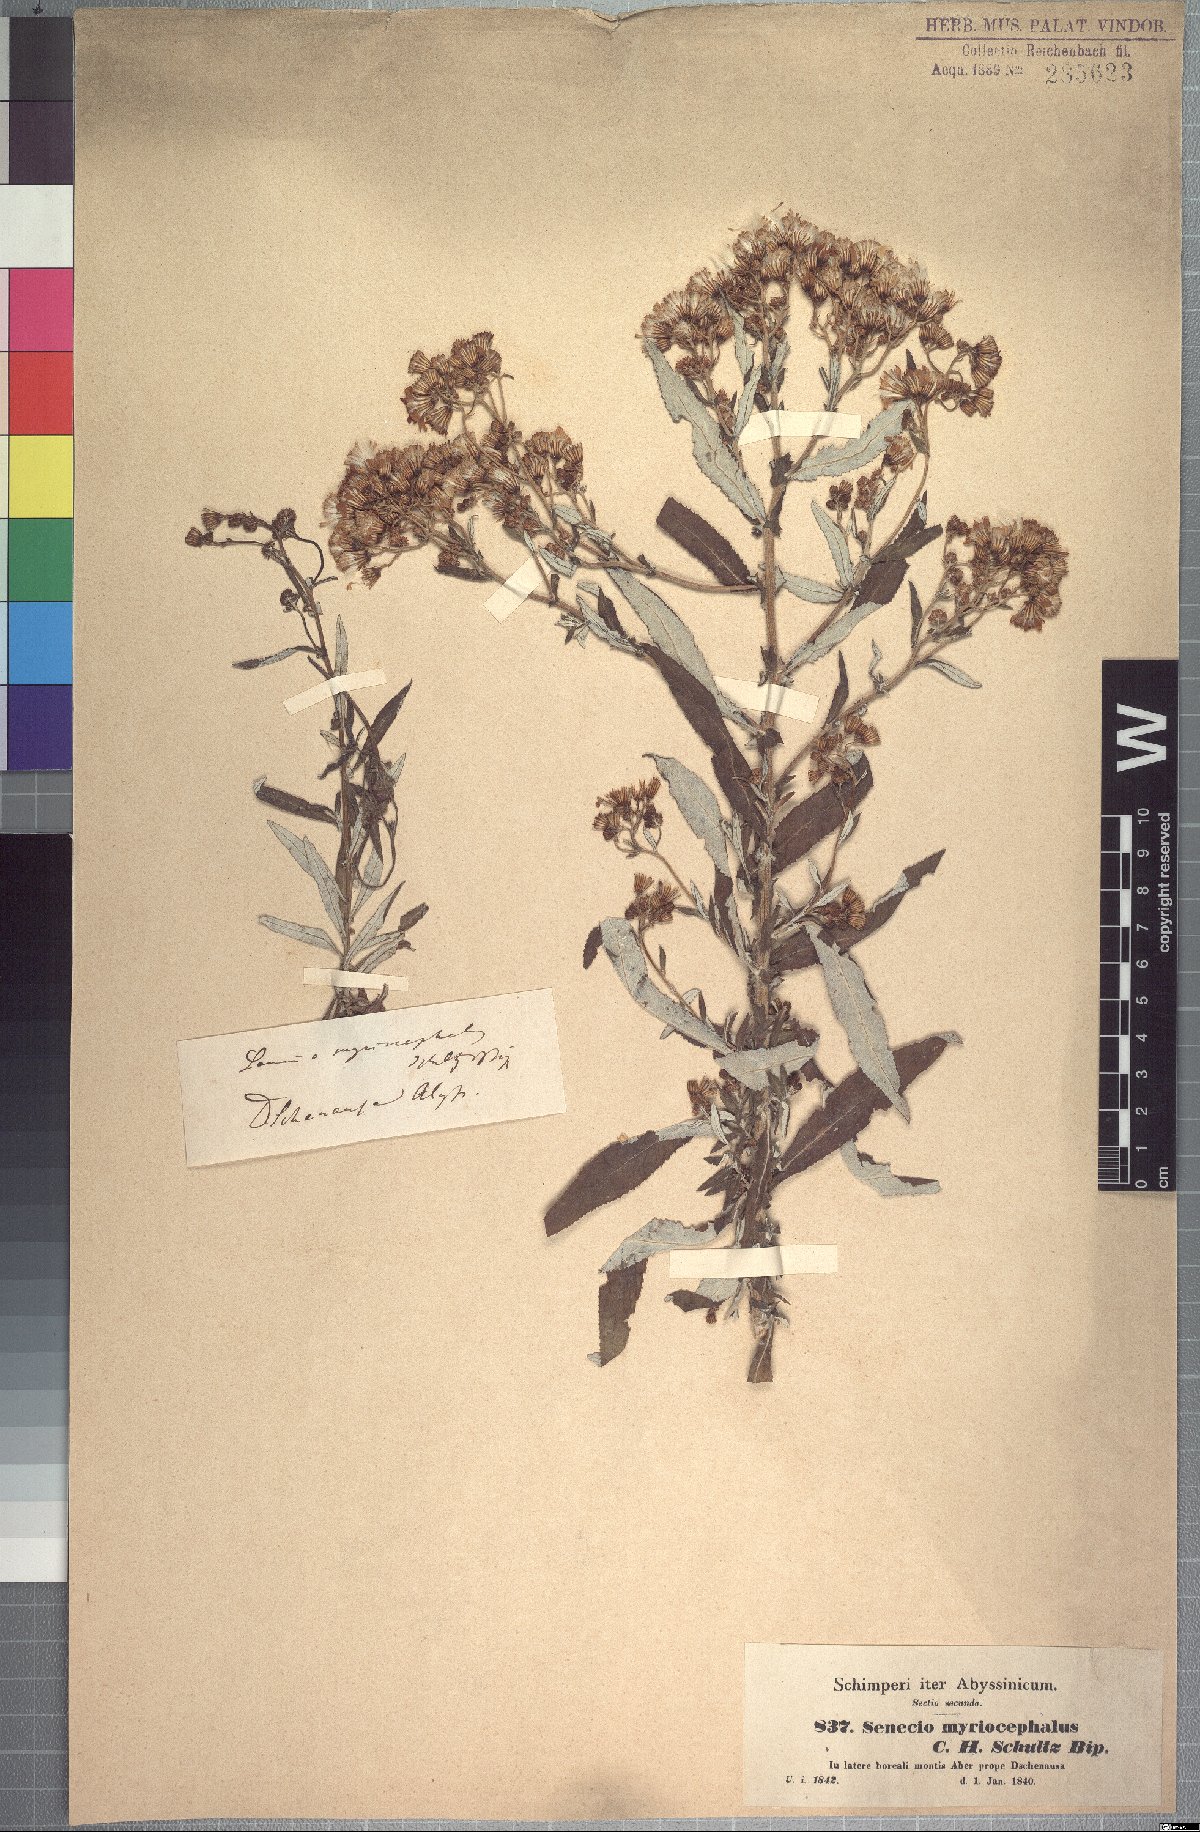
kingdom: Plantae
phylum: Tracheophyta
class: Magnoliopsida
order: Asterales
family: Asteraceae
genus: Senecio
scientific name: Senecio myriocephalus
